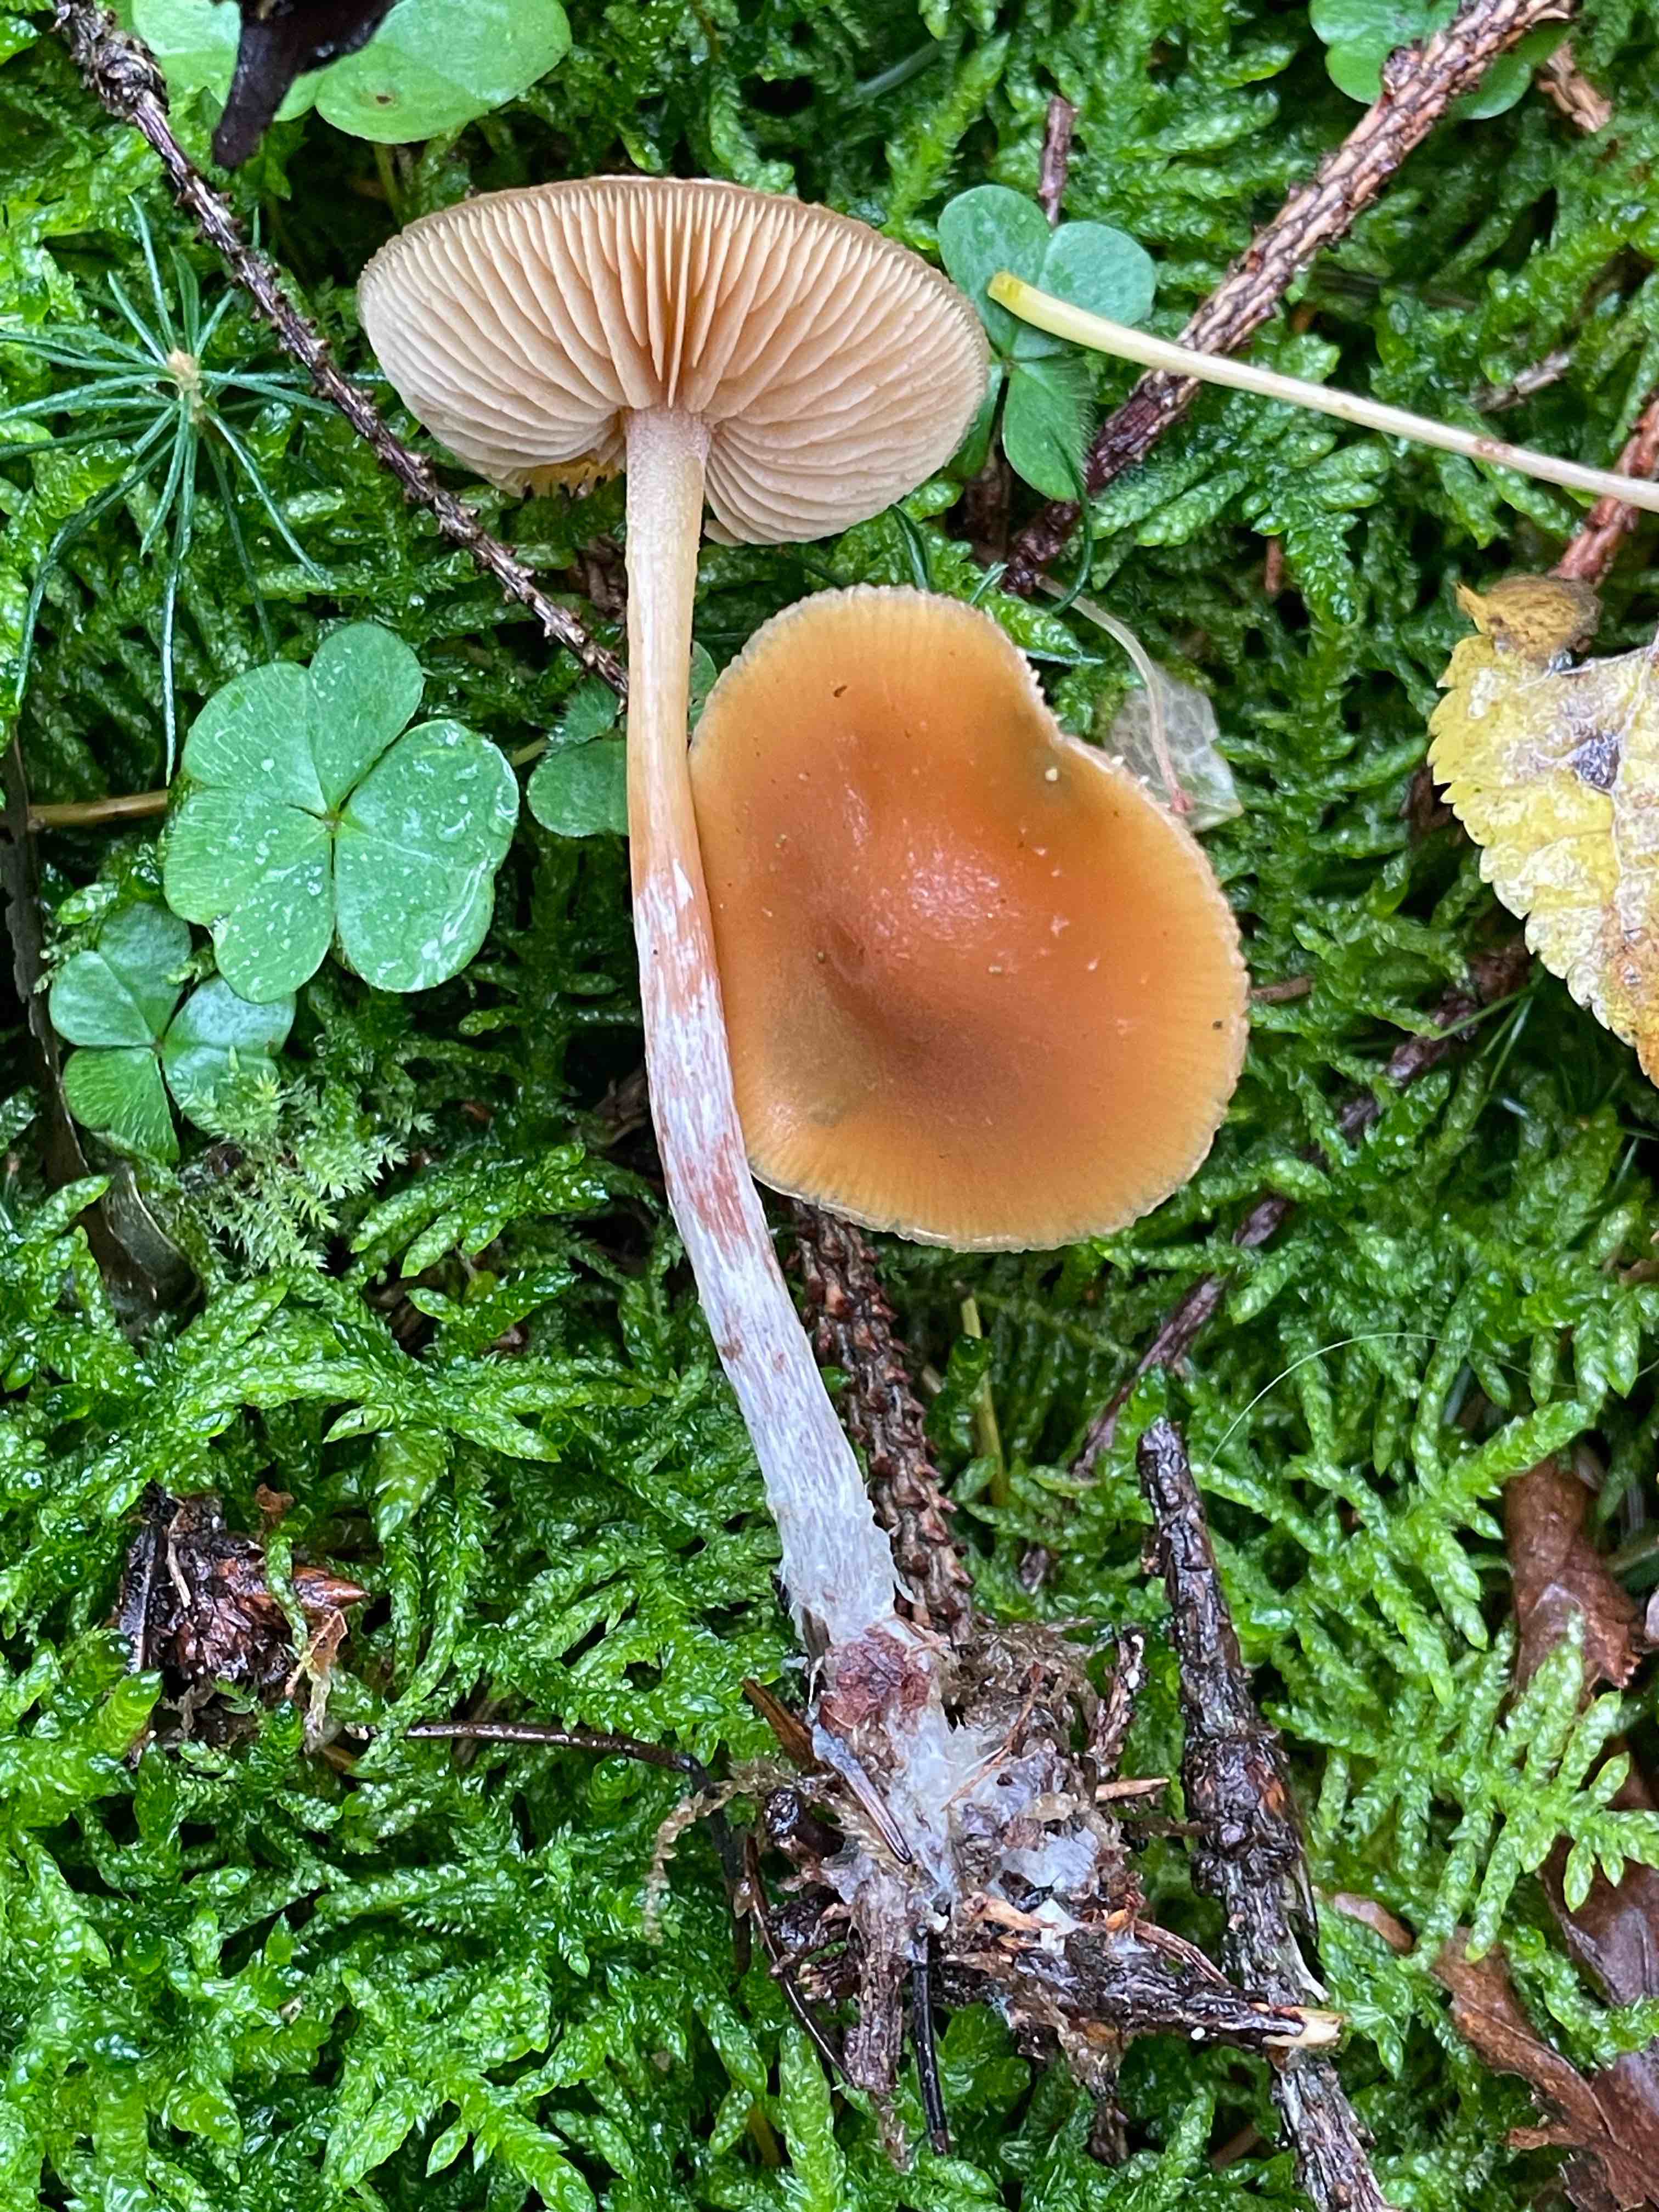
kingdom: Fungi
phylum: Basidiomycota
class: Agaricomycetes
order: Agaricales
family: Hymenogastraceae
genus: Galerina
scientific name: Galerina sideroides
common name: træflis-hjelmhat
